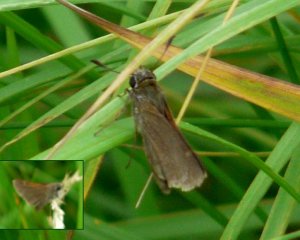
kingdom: Animalia
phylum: Arthropoda
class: Insecta
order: Lepidoptera
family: Hesperiidae
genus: Polites
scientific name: Polites themistocles
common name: Tawny-edged Skipper
